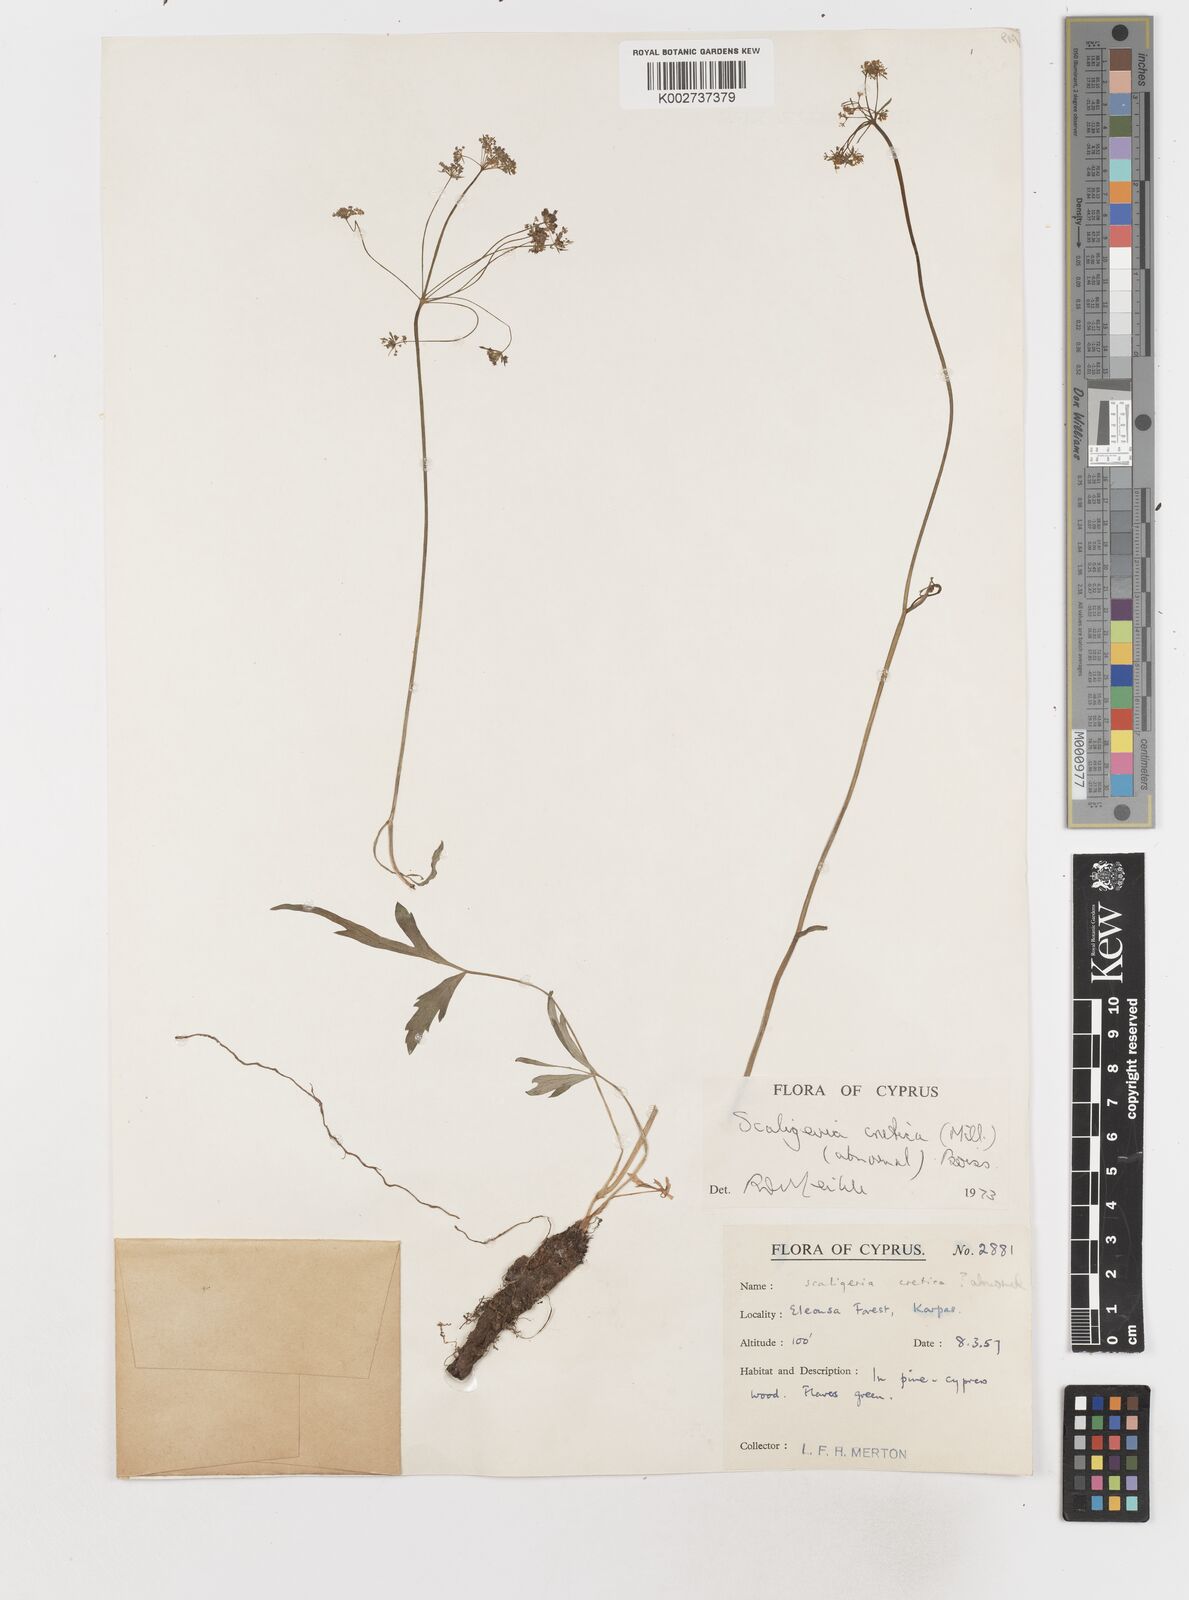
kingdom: Plantae
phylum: Tracheophyta
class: Magnoliopsida
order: Apiales
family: Apiaceae
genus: Scaligeria
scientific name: Scaligeria
